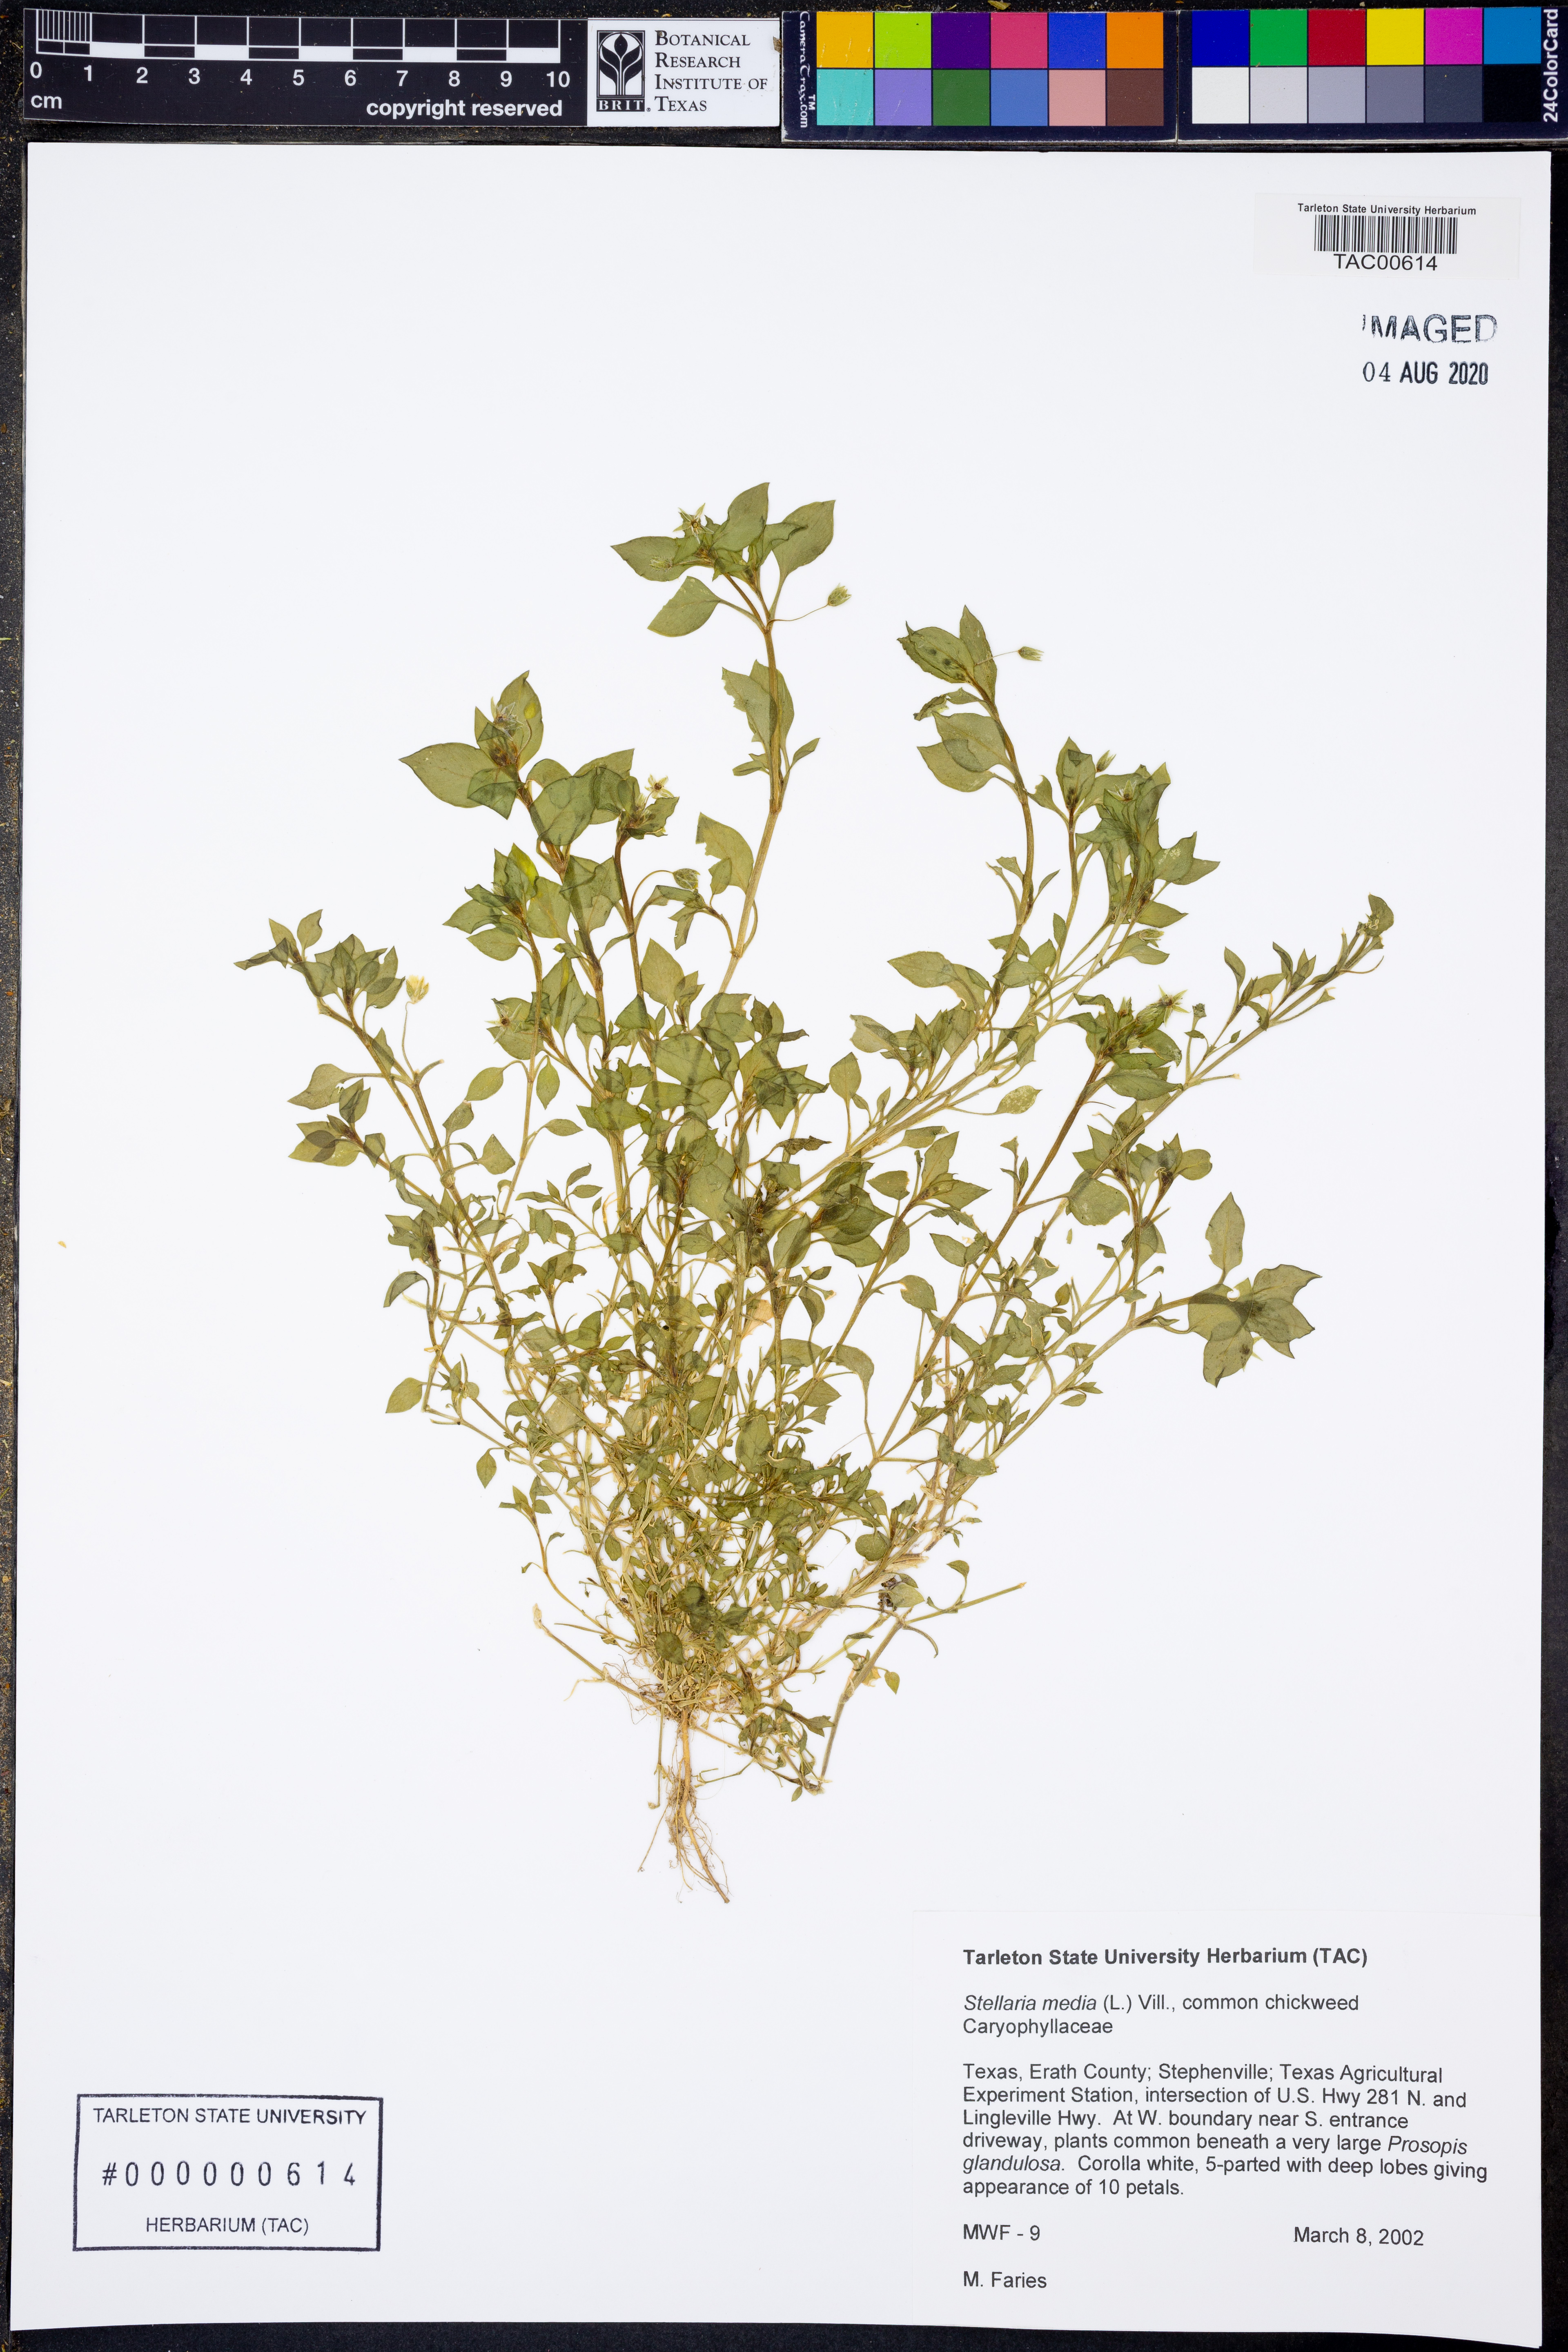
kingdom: Plantae
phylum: Tracheophyta
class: Magnoliopsida
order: Caryophyllales
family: Caryophyllaceae
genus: Stellaria
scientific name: Stellaria media
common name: Common chickweed
